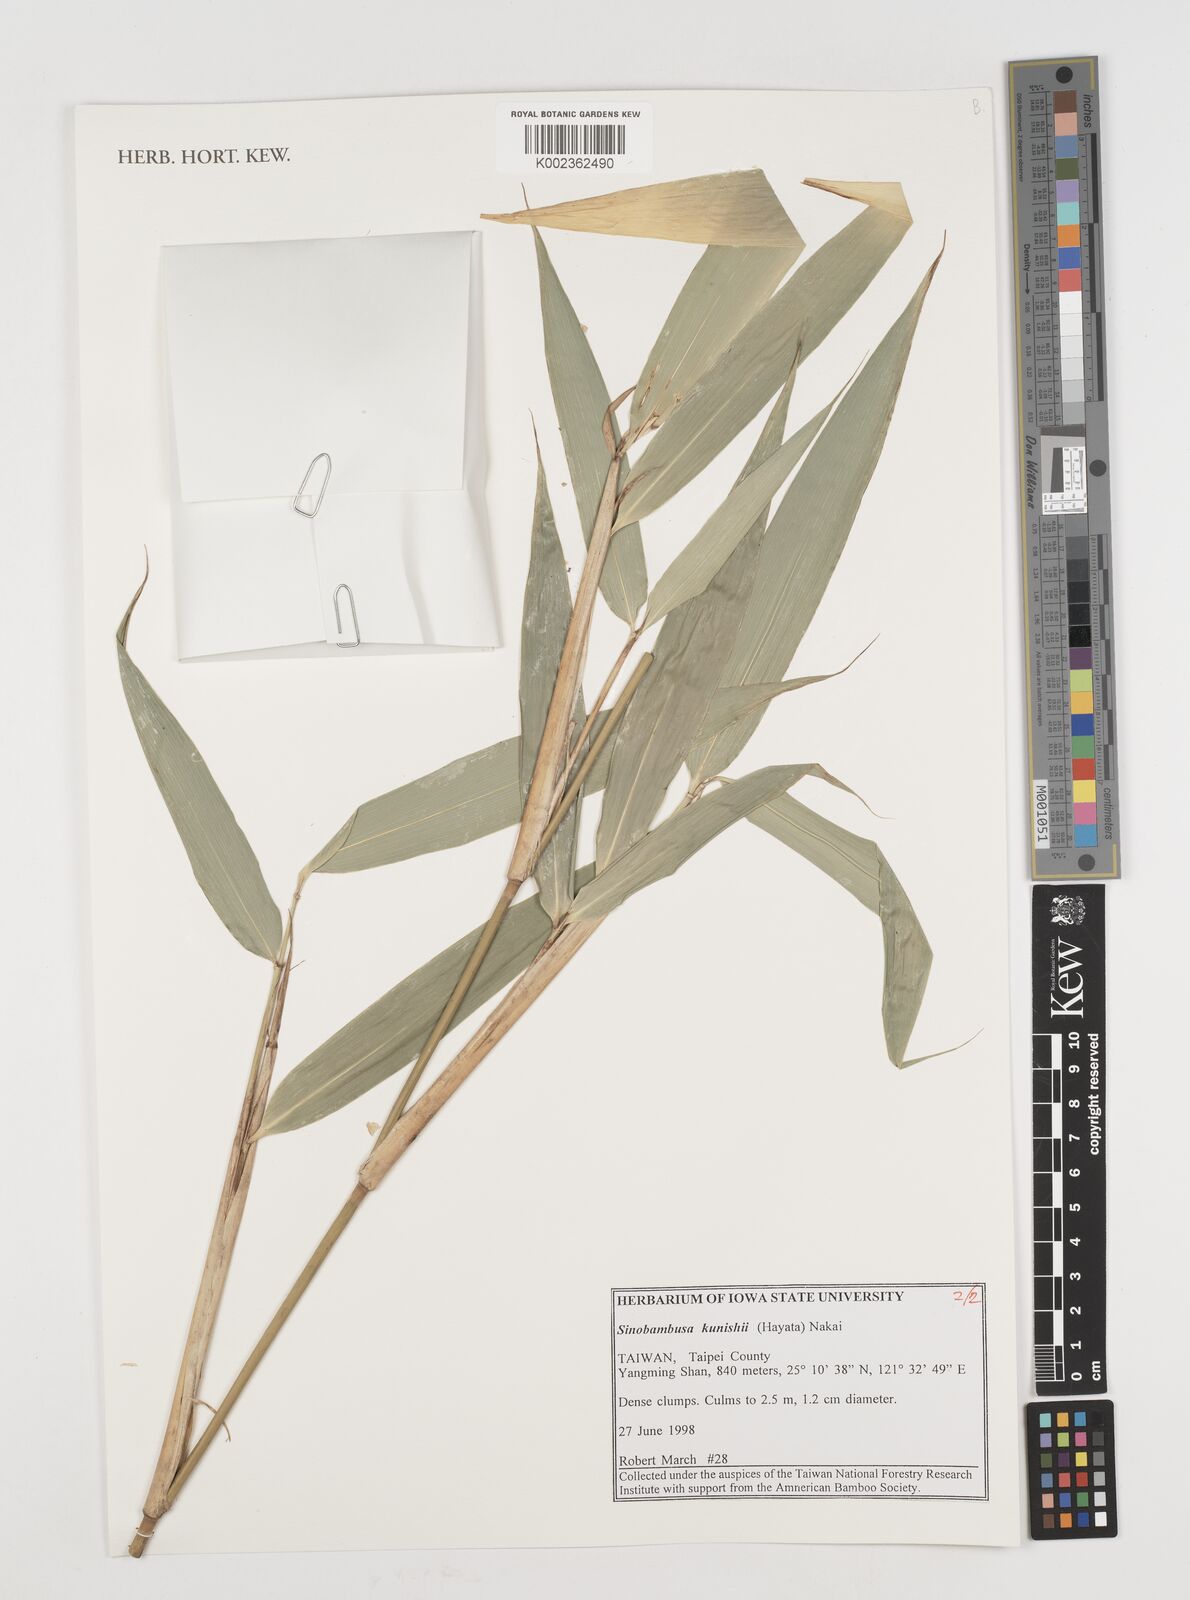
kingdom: Plantae
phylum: Tracheophyta
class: Liliopsida
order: Poales
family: Poaceae
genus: Gelidocalamus
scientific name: Gelidocalamus kunishii
